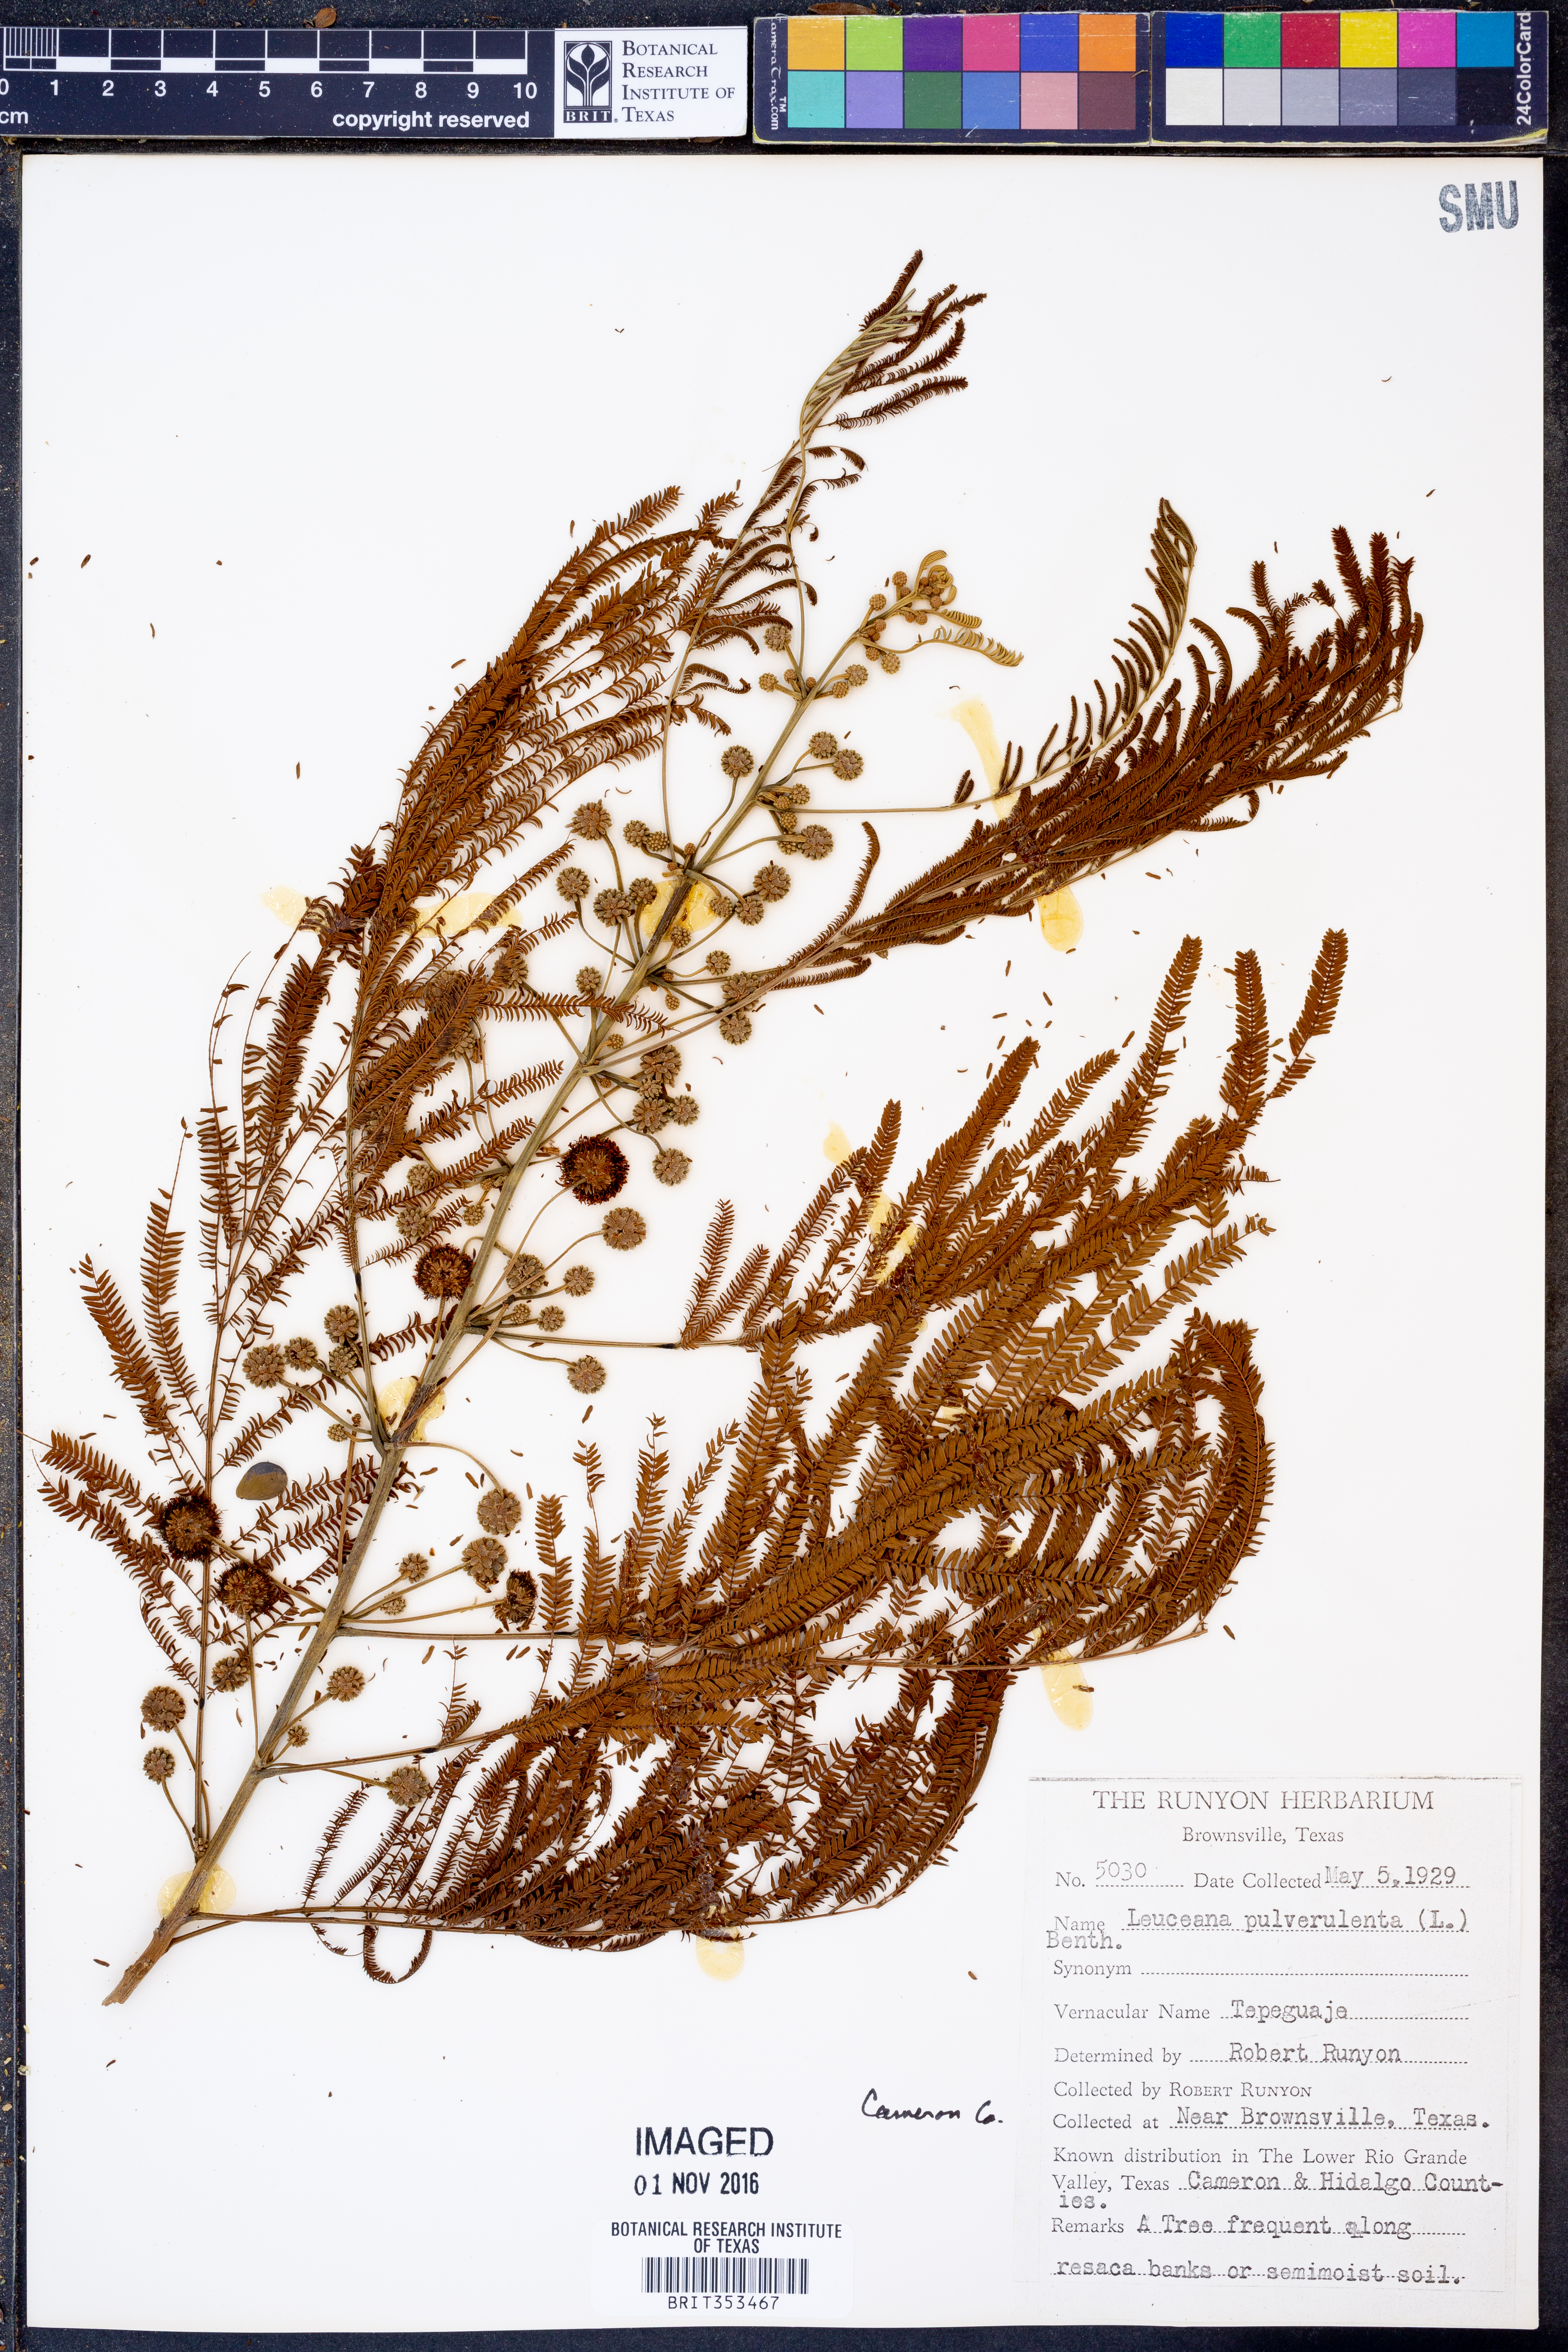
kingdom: Plantae
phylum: Tracheophyta
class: Magnoliopsida
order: Fabales
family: Fabaceae
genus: Leucaena
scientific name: Leucaena pulverulenta
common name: Great leadtree
